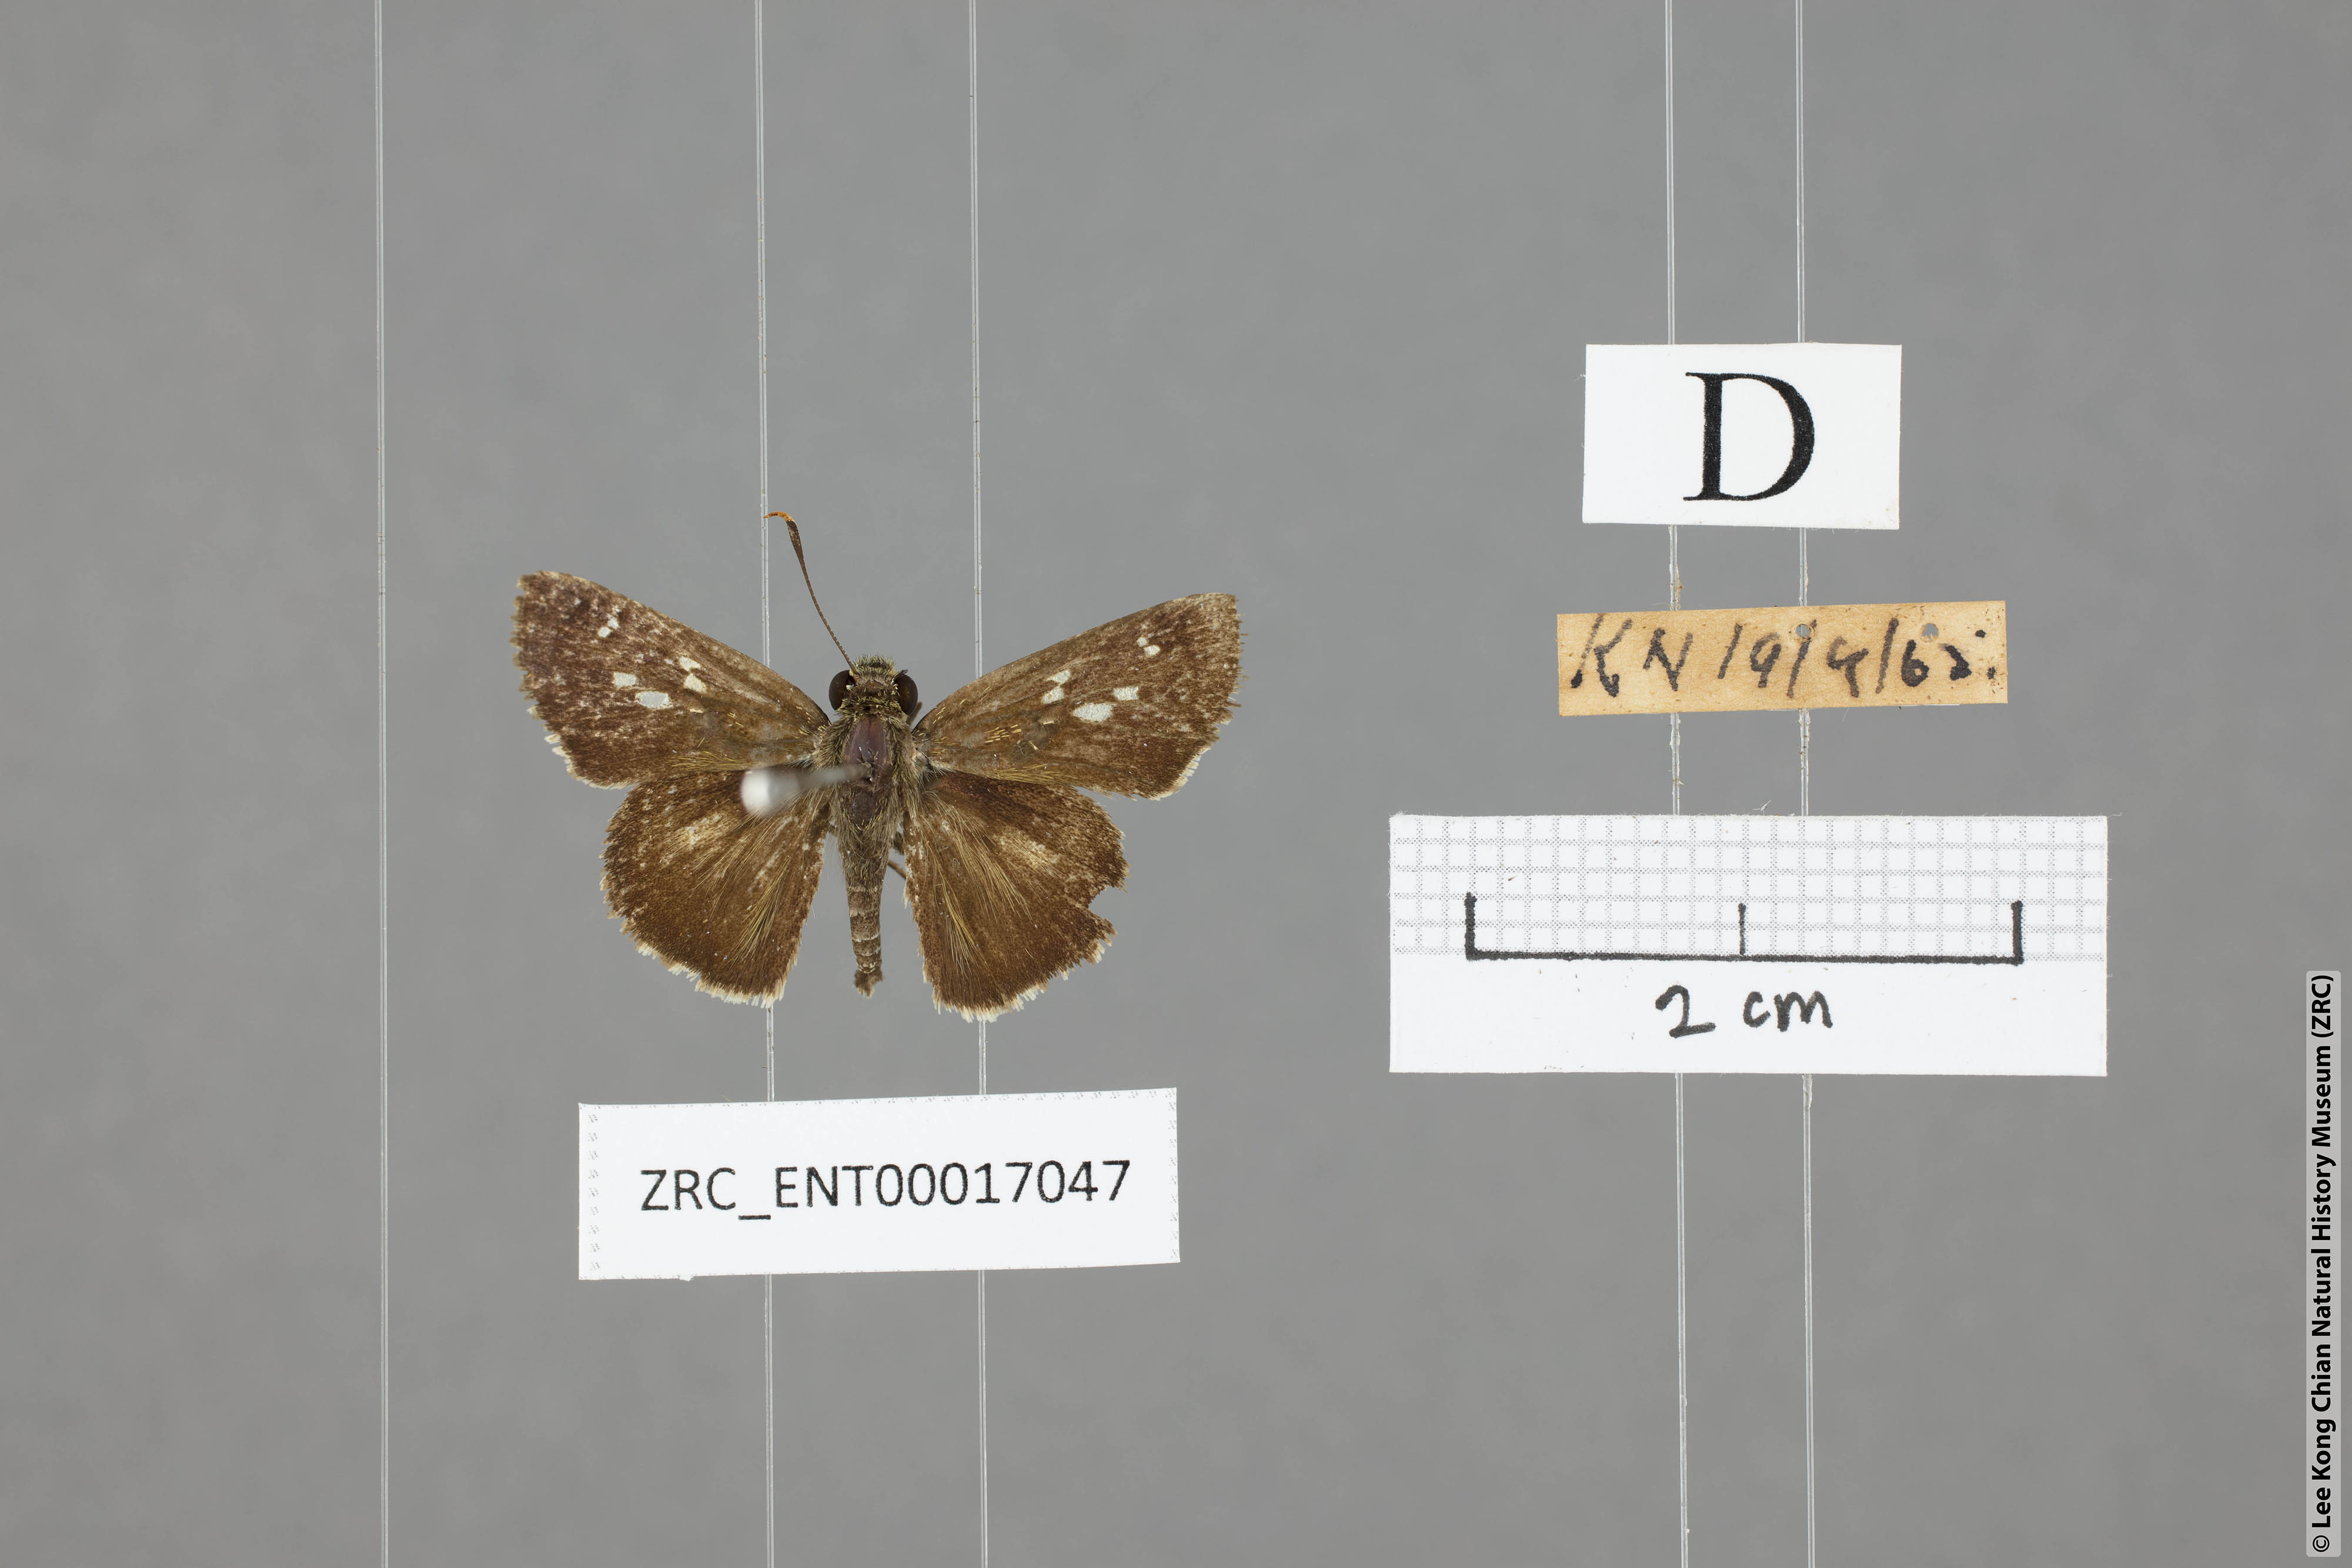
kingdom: Animalia
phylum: Arthropoda
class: Insecta
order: Lepidoptera
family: Hesperiidae
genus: Halpe
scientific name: Halpe porus
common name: Moore's ace
